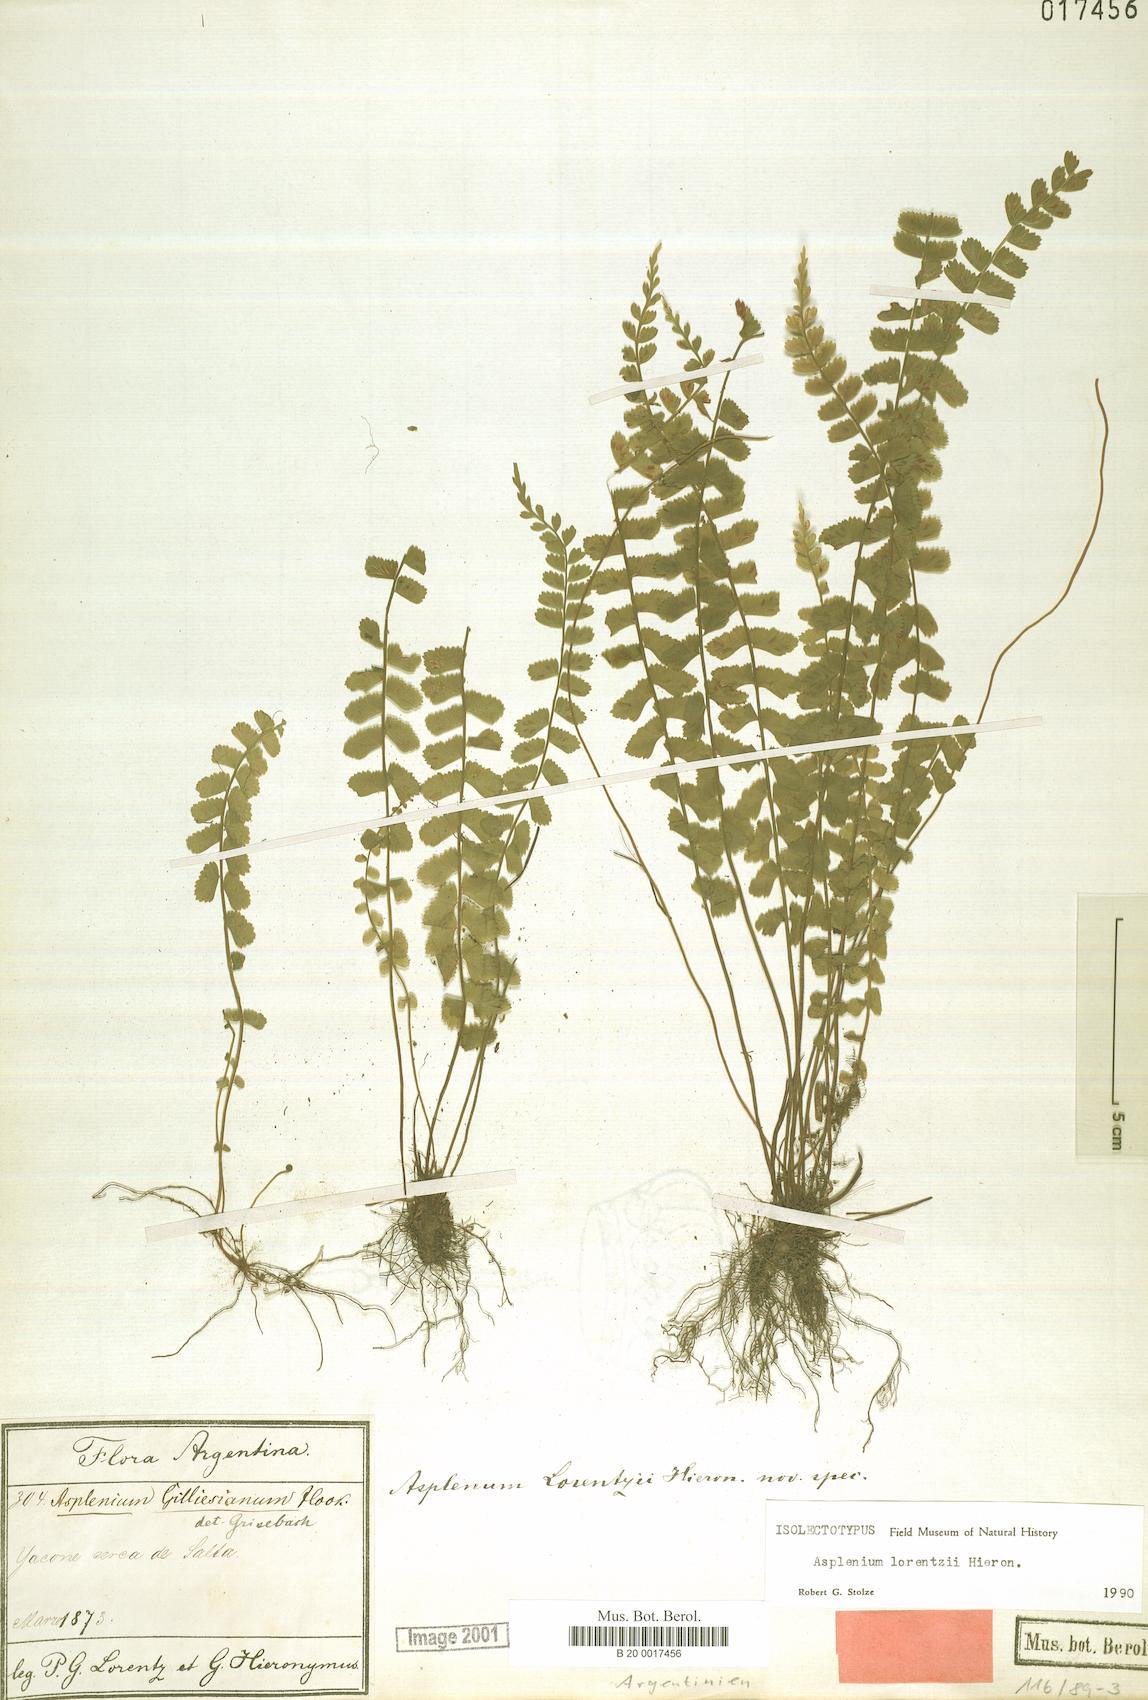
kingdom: Plantae
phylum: Tracheophyta
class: Polypodiopsida
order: Polypodiales
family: Thelypteridaceae
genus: Amauropelta
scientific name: Amauropelta argentina
